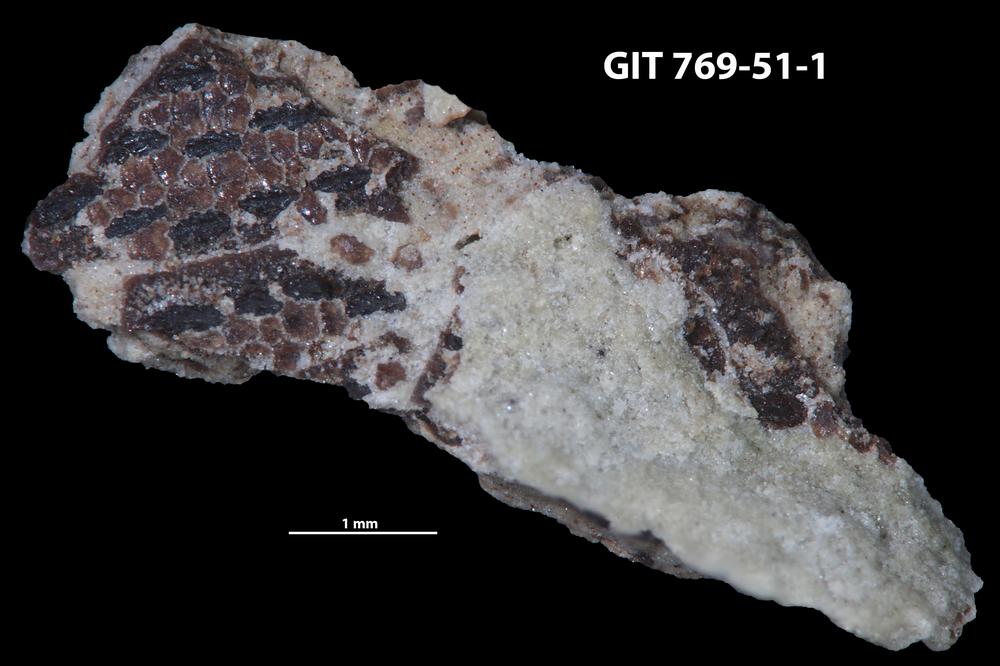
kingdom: Animalia
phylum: Chordata
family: Dartmuthiidae
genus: Dartmuthia
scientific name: Dartmuthia
